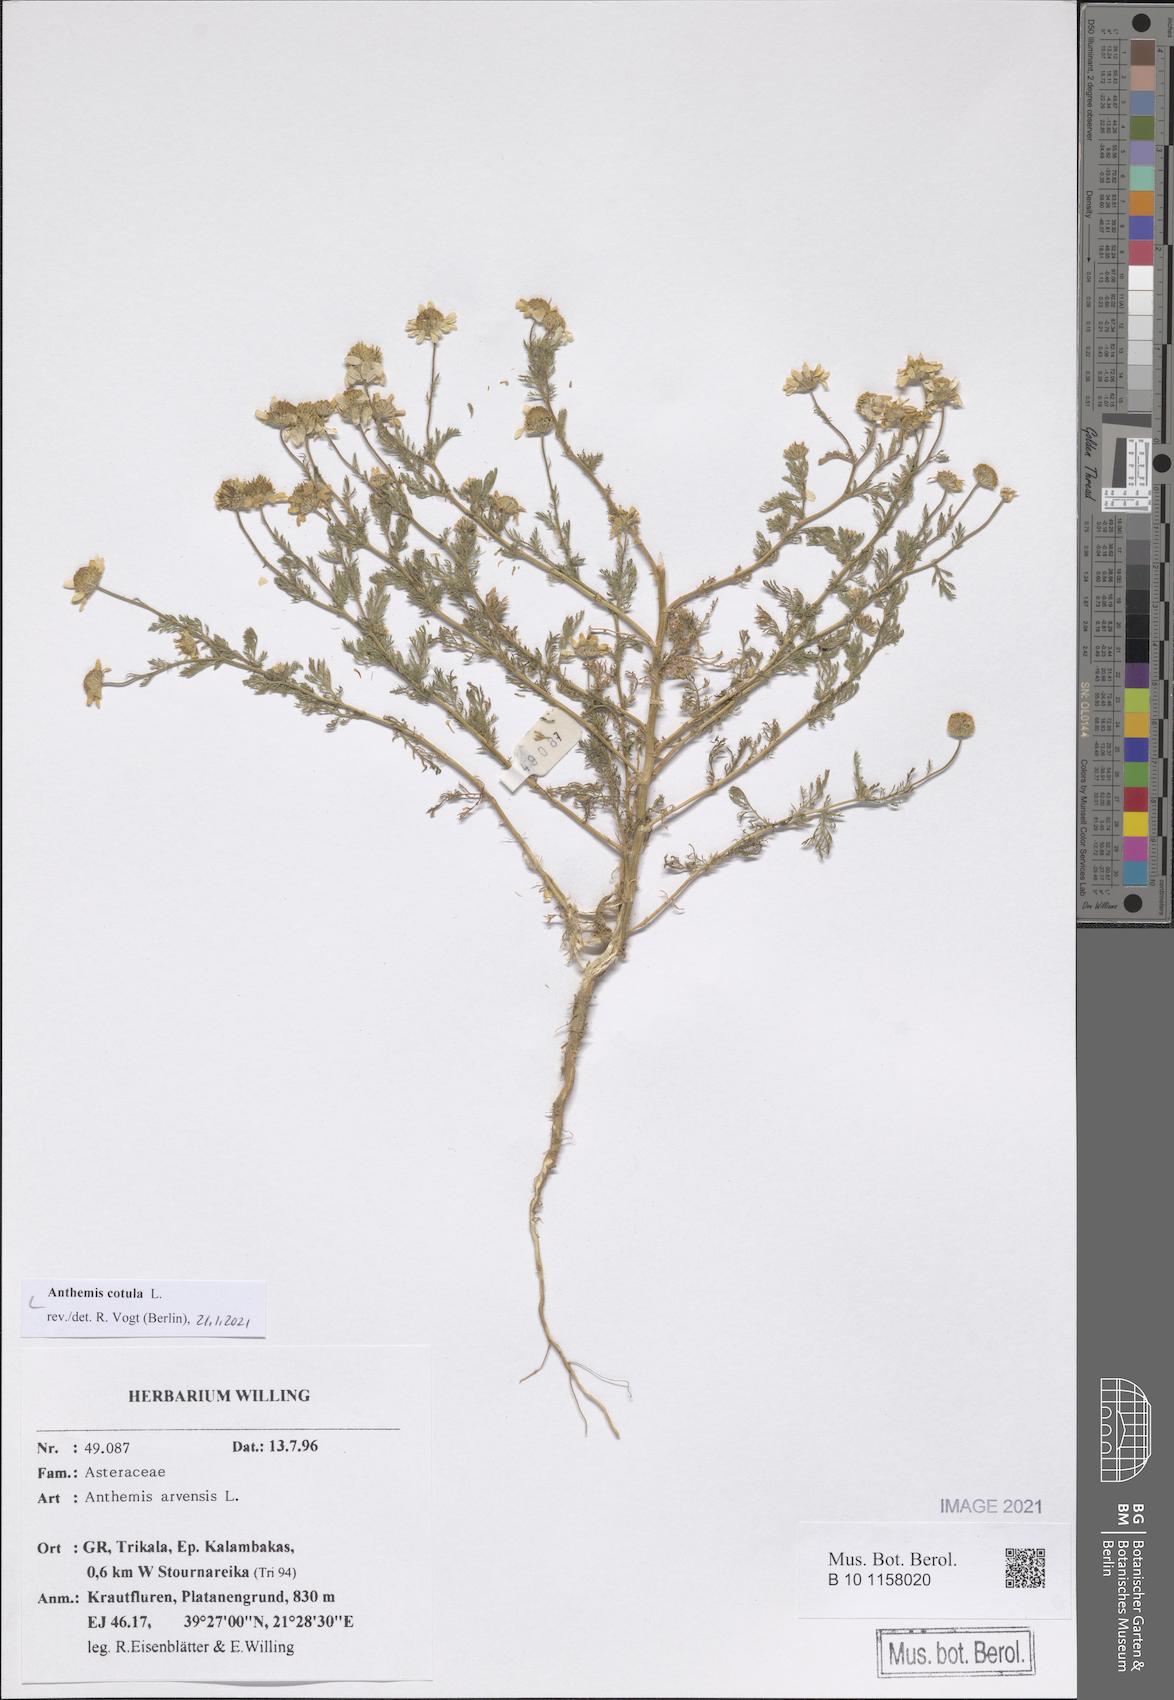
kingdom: Plantae
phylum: Tracheophyta
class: Magnoliopsida
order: Asterales
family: Asteraceae
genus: Anthemis
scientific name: Anthemis cotula
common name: Stinking chamomile
